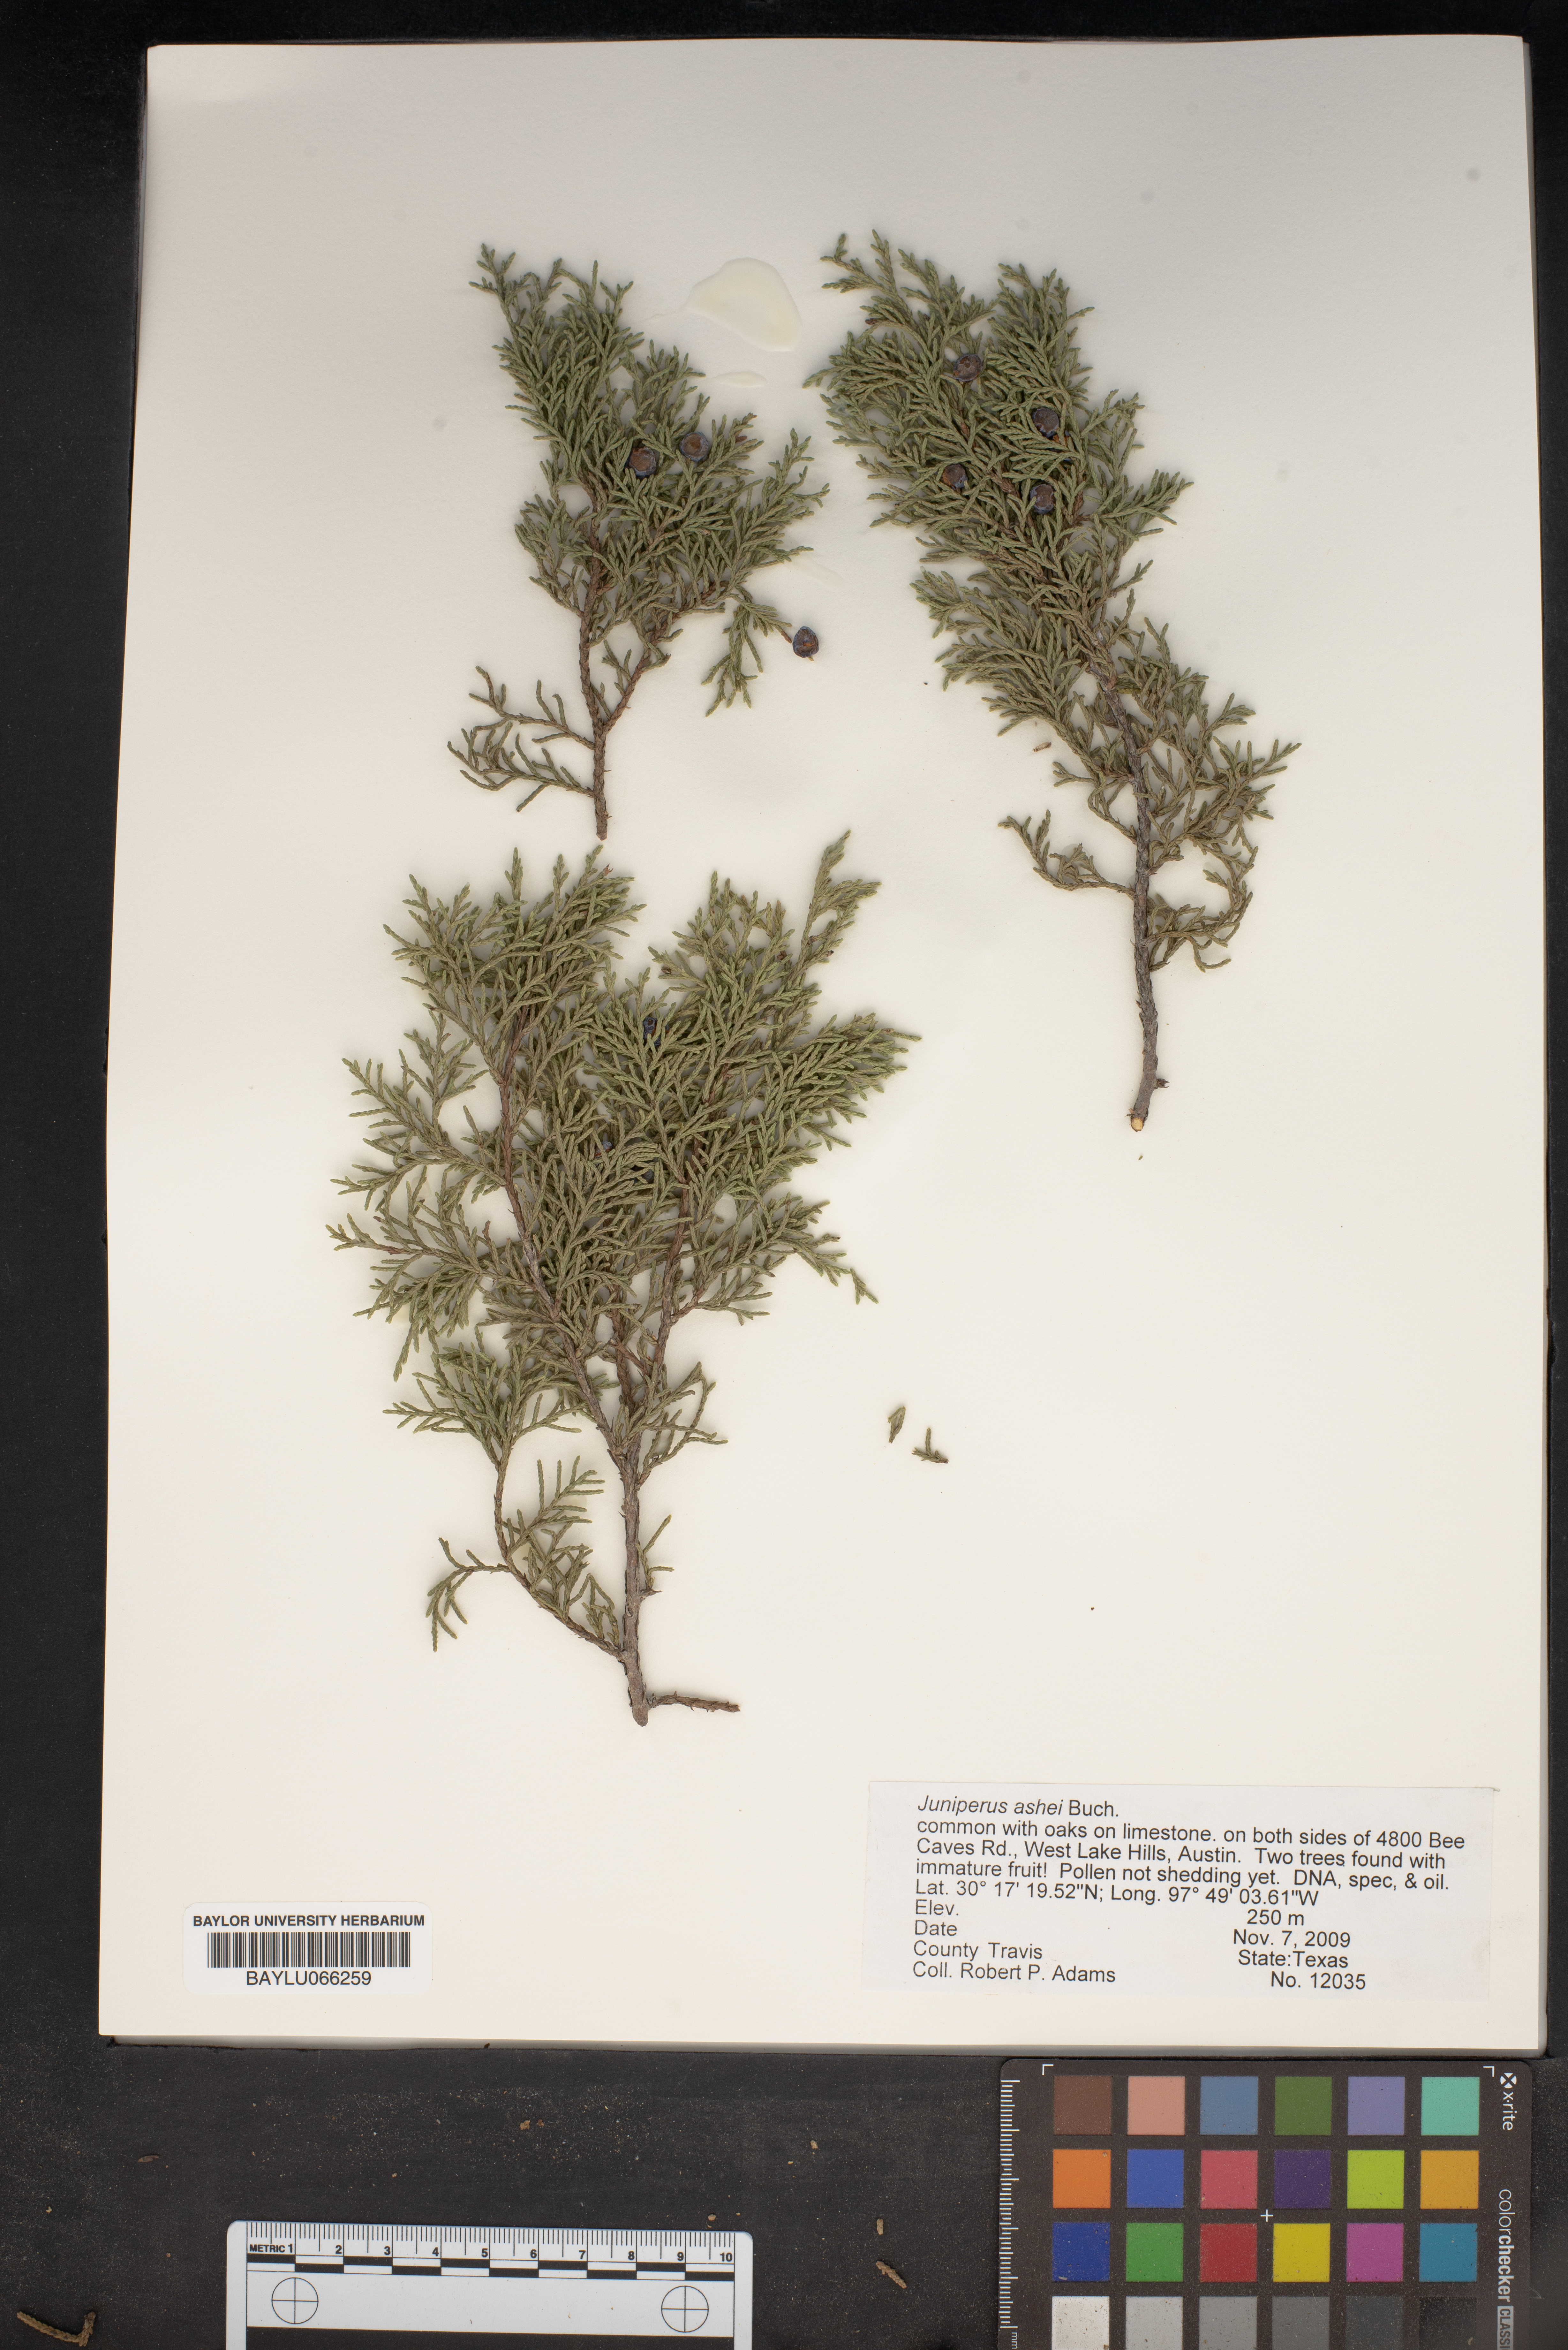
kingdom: Plantae
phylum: Tracheophyta
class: Pinopsida
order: Pinales
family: Cupressaceae
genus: Juniperus
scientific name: Juniperus ashei
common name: Mexican juniper
